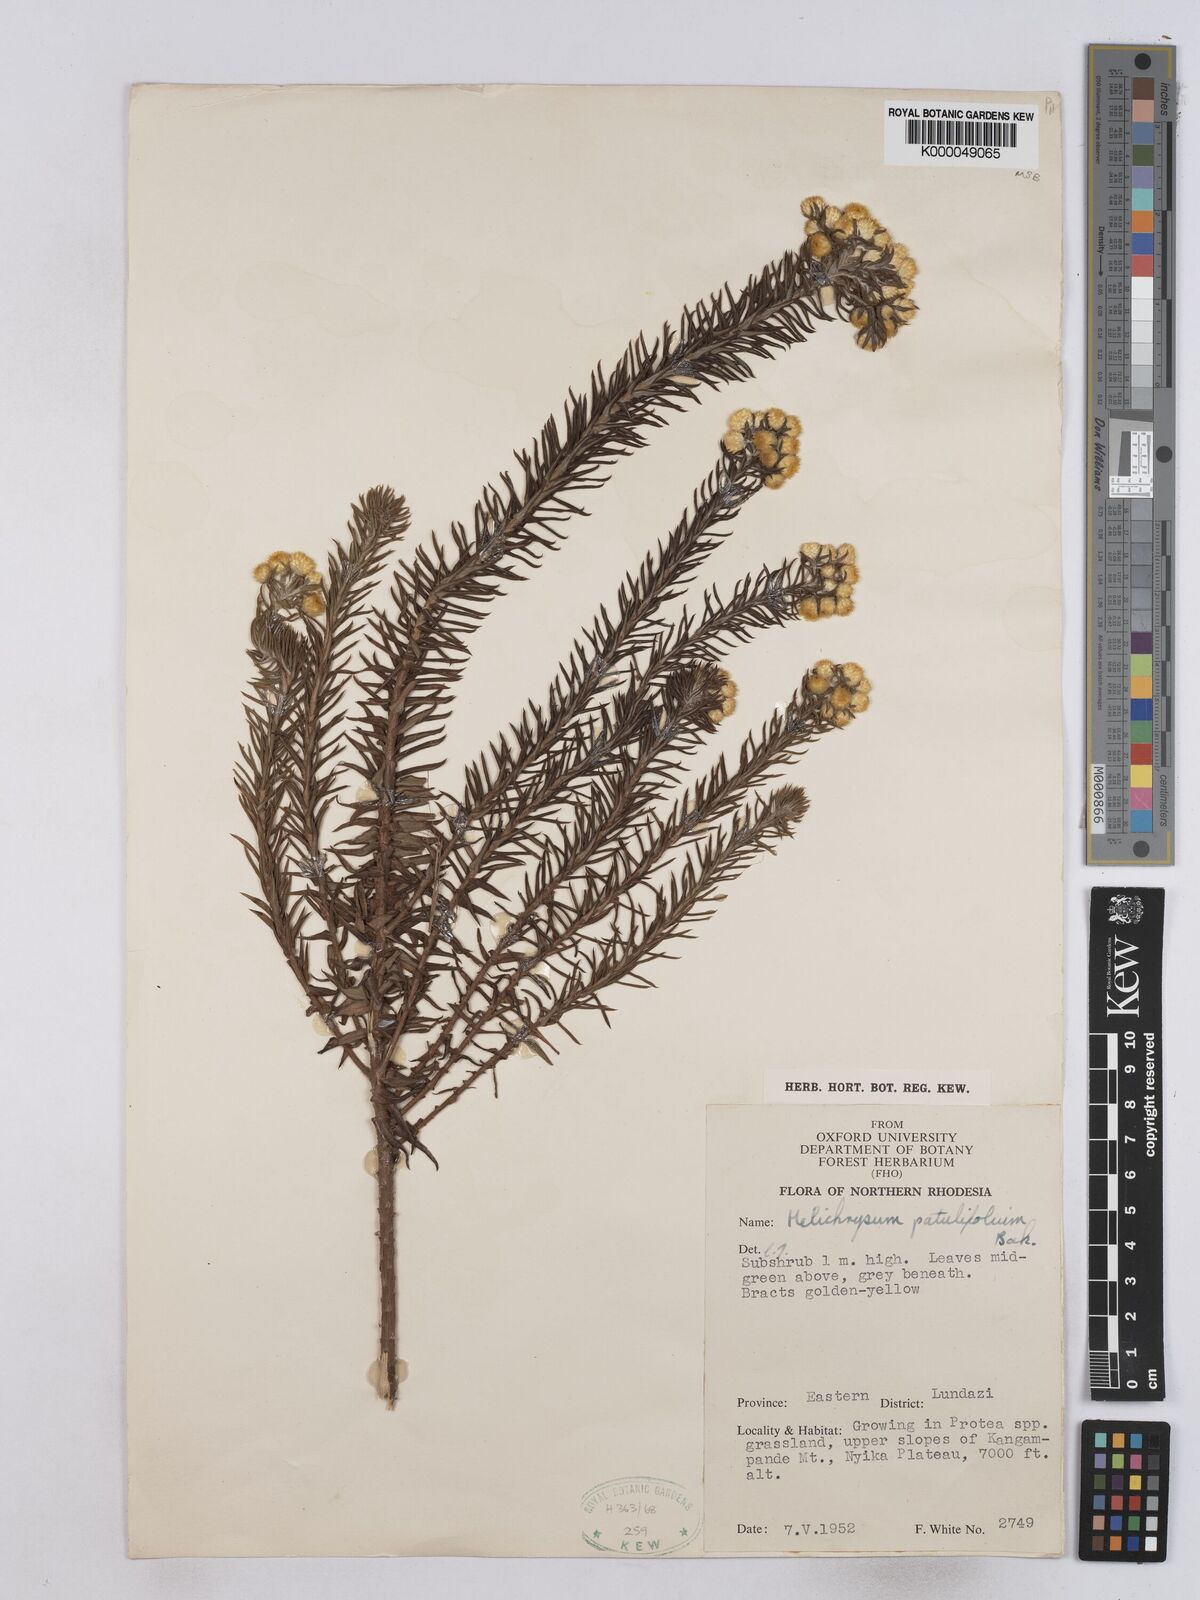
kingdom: Plantae
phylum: Tracheophyta
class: Magnoliopsida
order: Asterales
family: Asteraceae
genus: Helichrysum
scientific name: Helichrysum patulifolium
